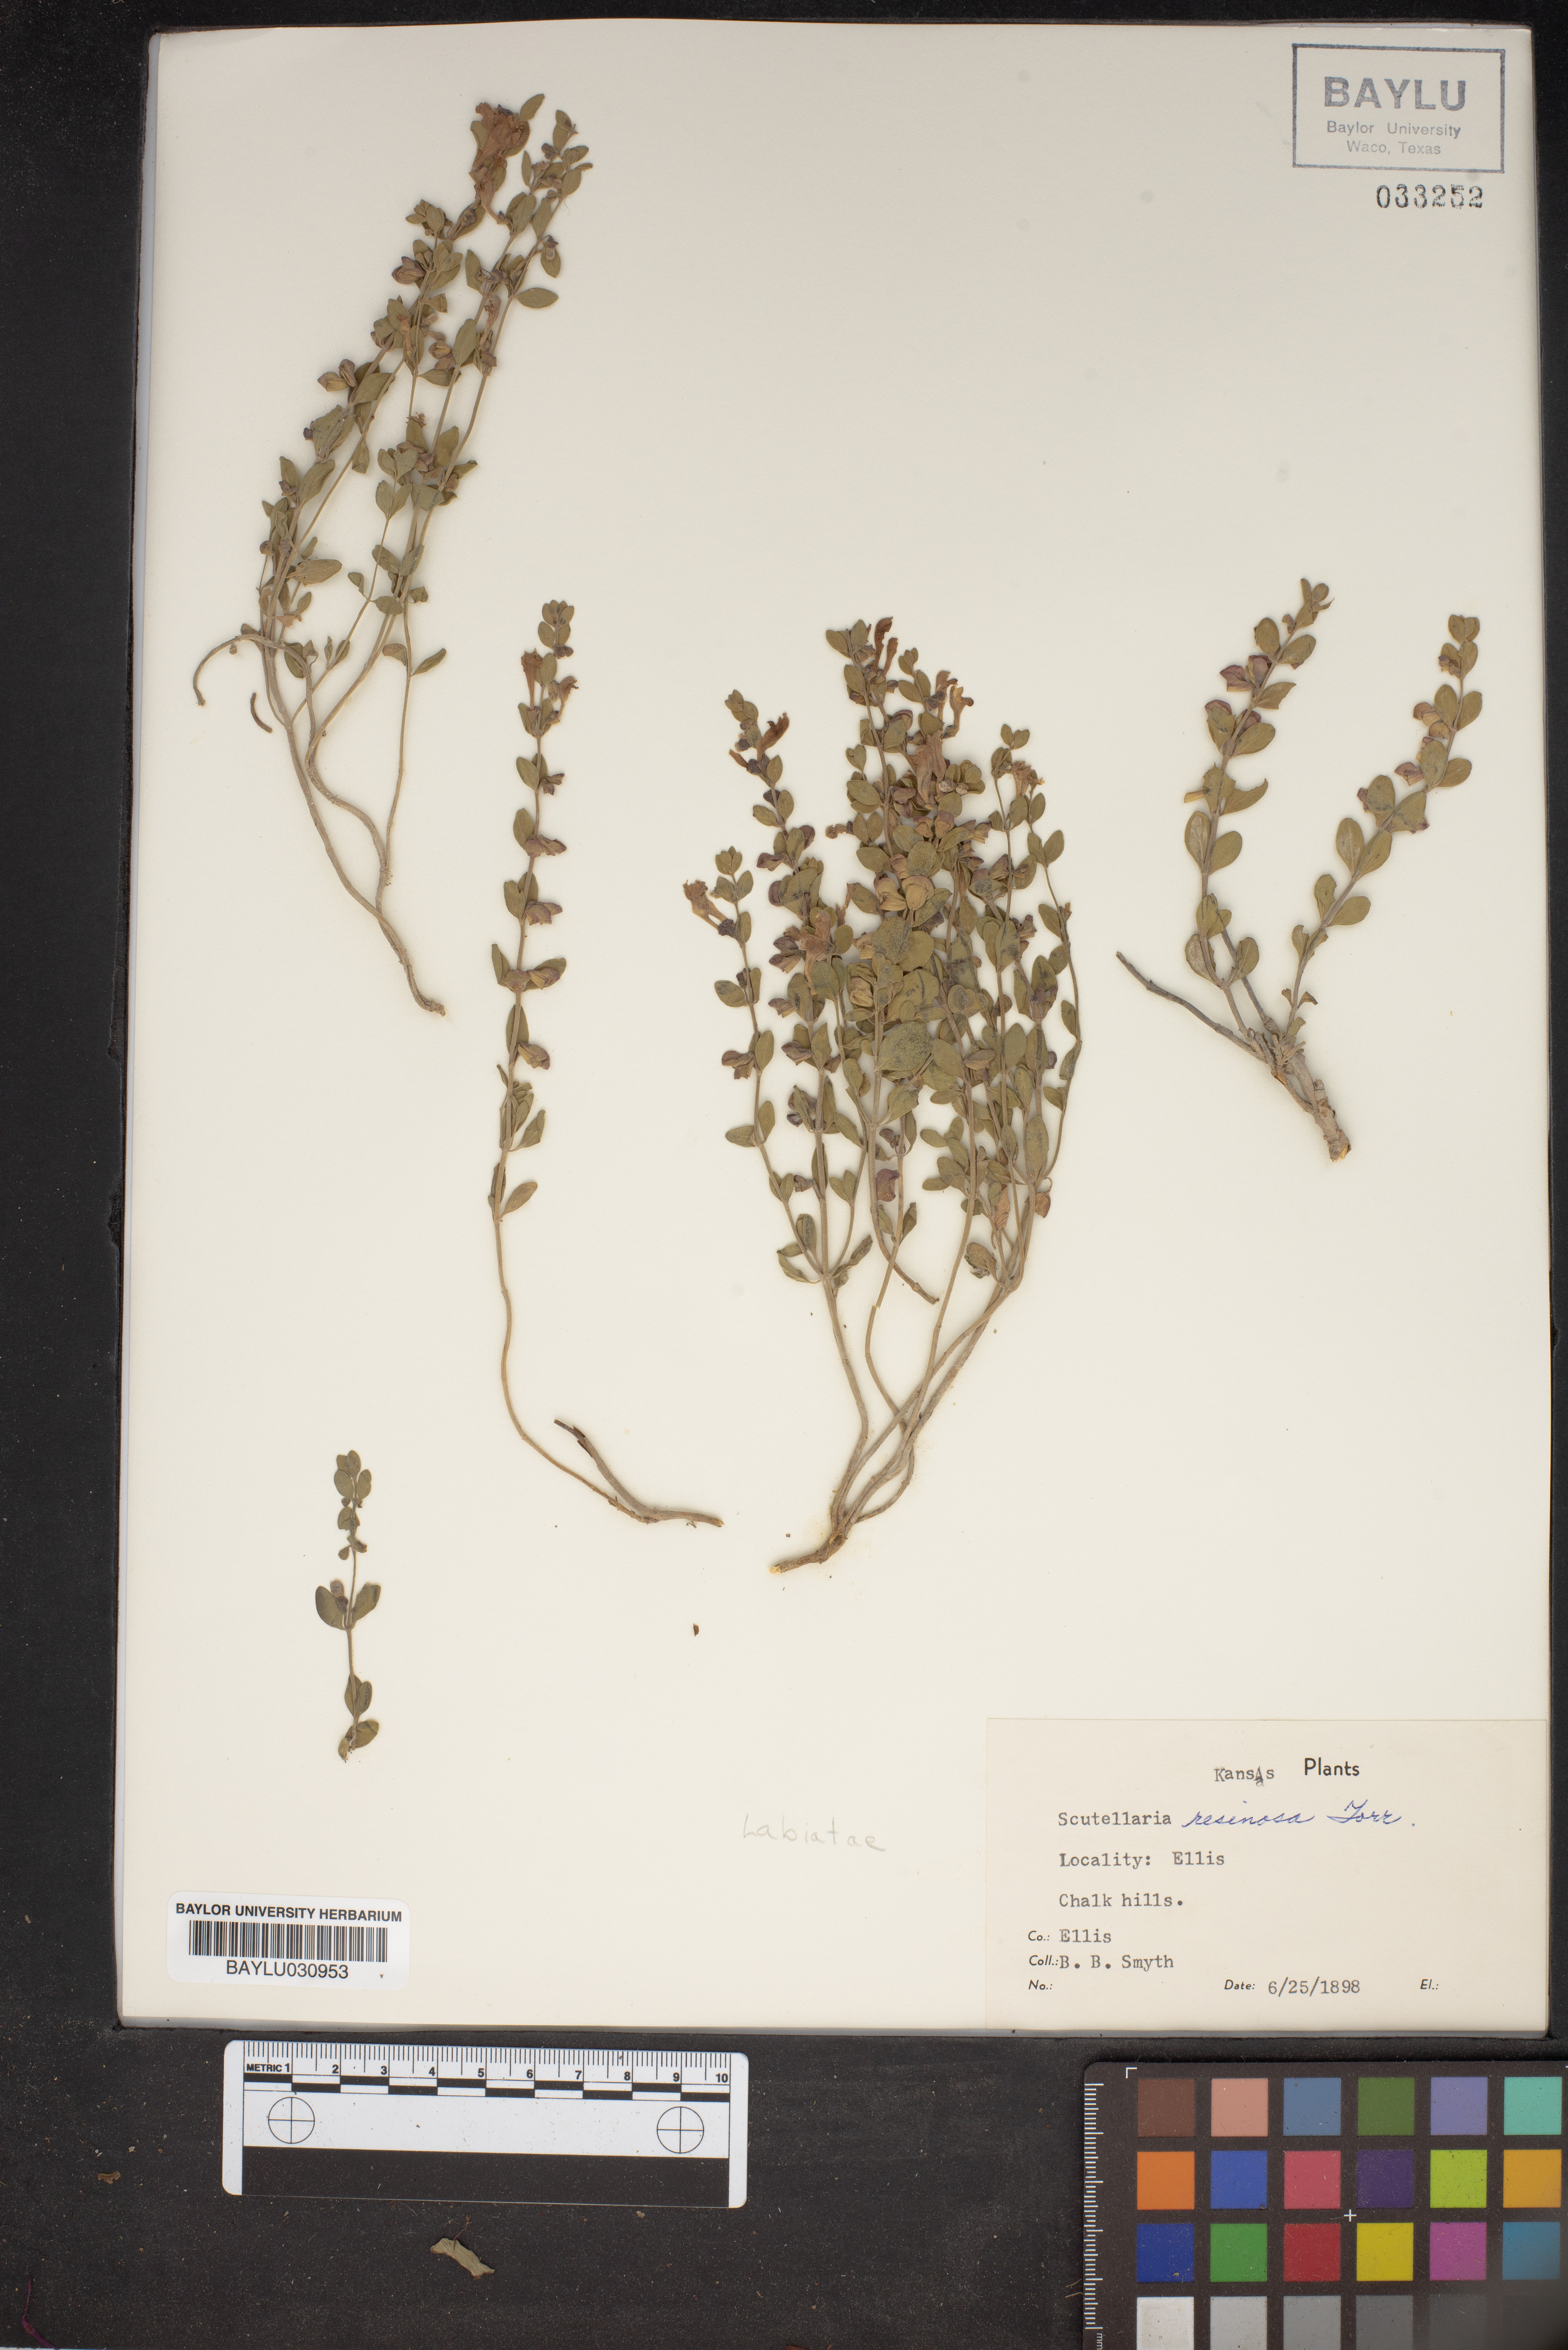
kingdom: Plantae
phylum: Tracheophyta
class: Magnoliopsida
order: Lamiales
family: Lamiaceae
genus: Scutellaria
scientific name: Scutellaria resinosa
